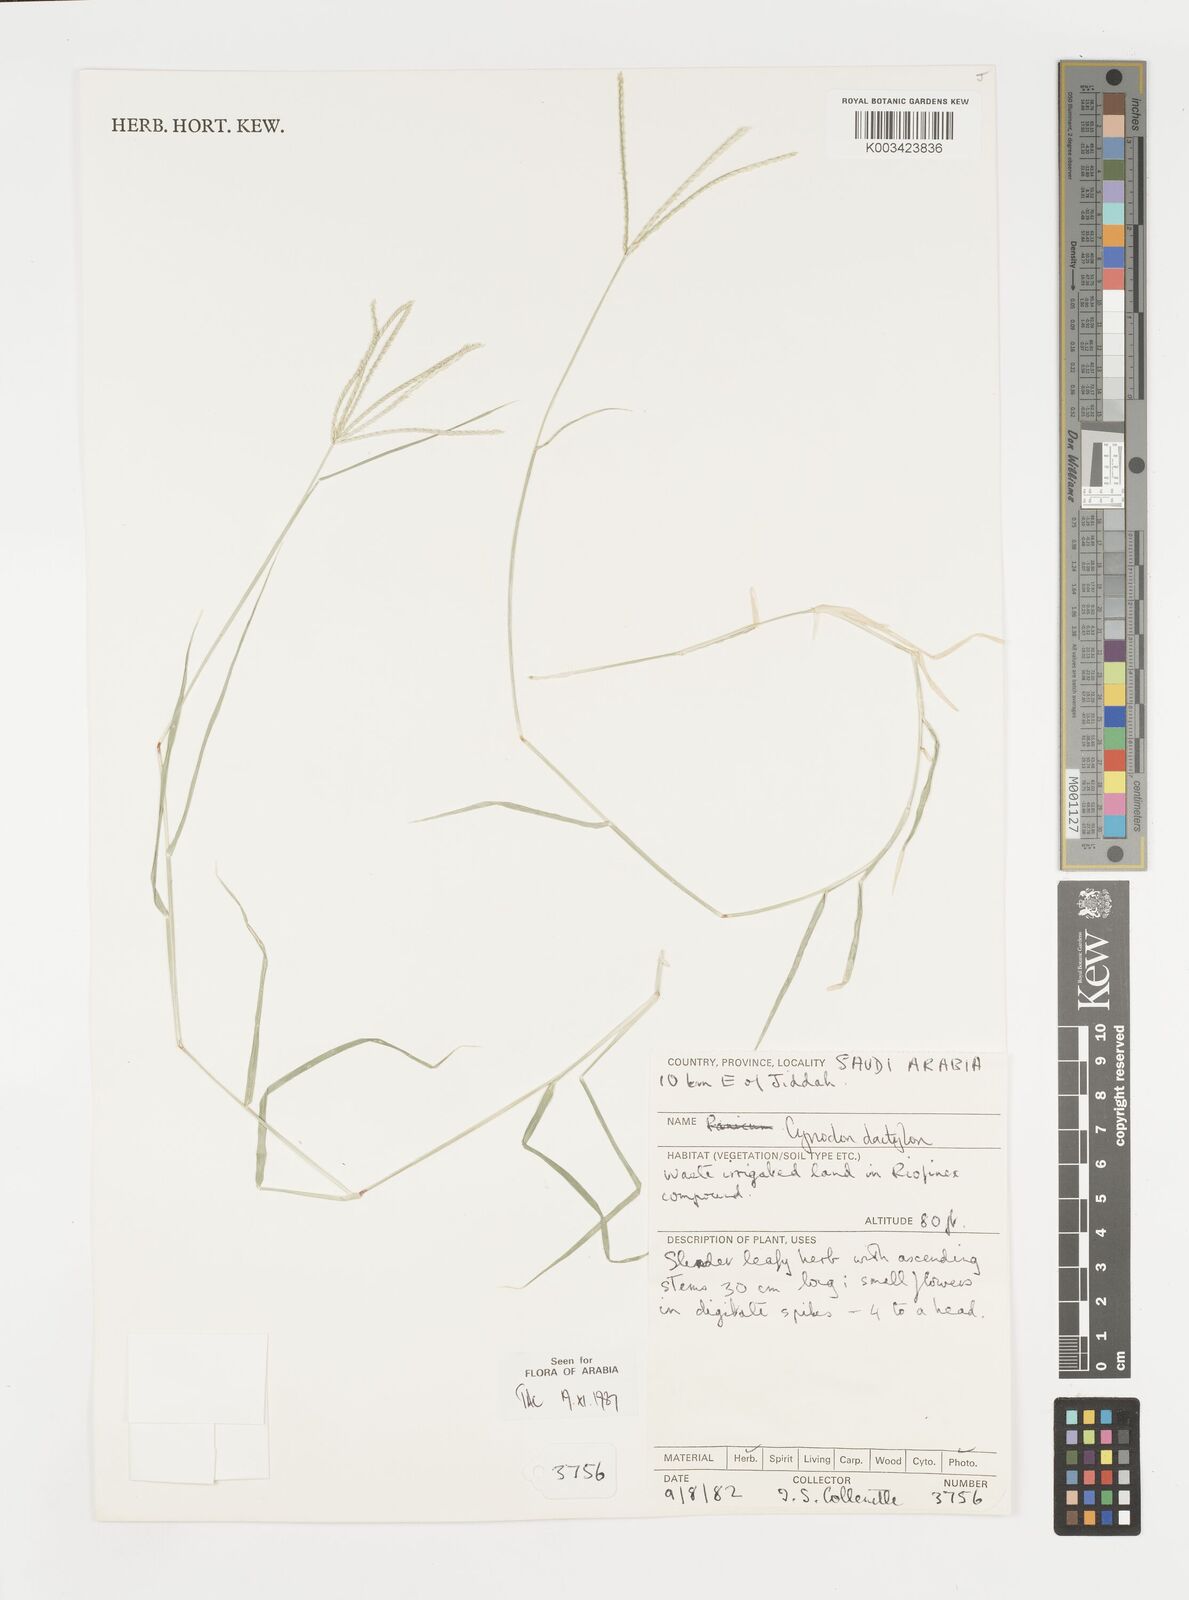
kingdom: Plantae
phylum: Tracheophyta
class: Liliopsida
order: Poales
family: Poaceae
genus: Cynodon
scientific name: Cynodon dactylon
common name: Bermuda grass
